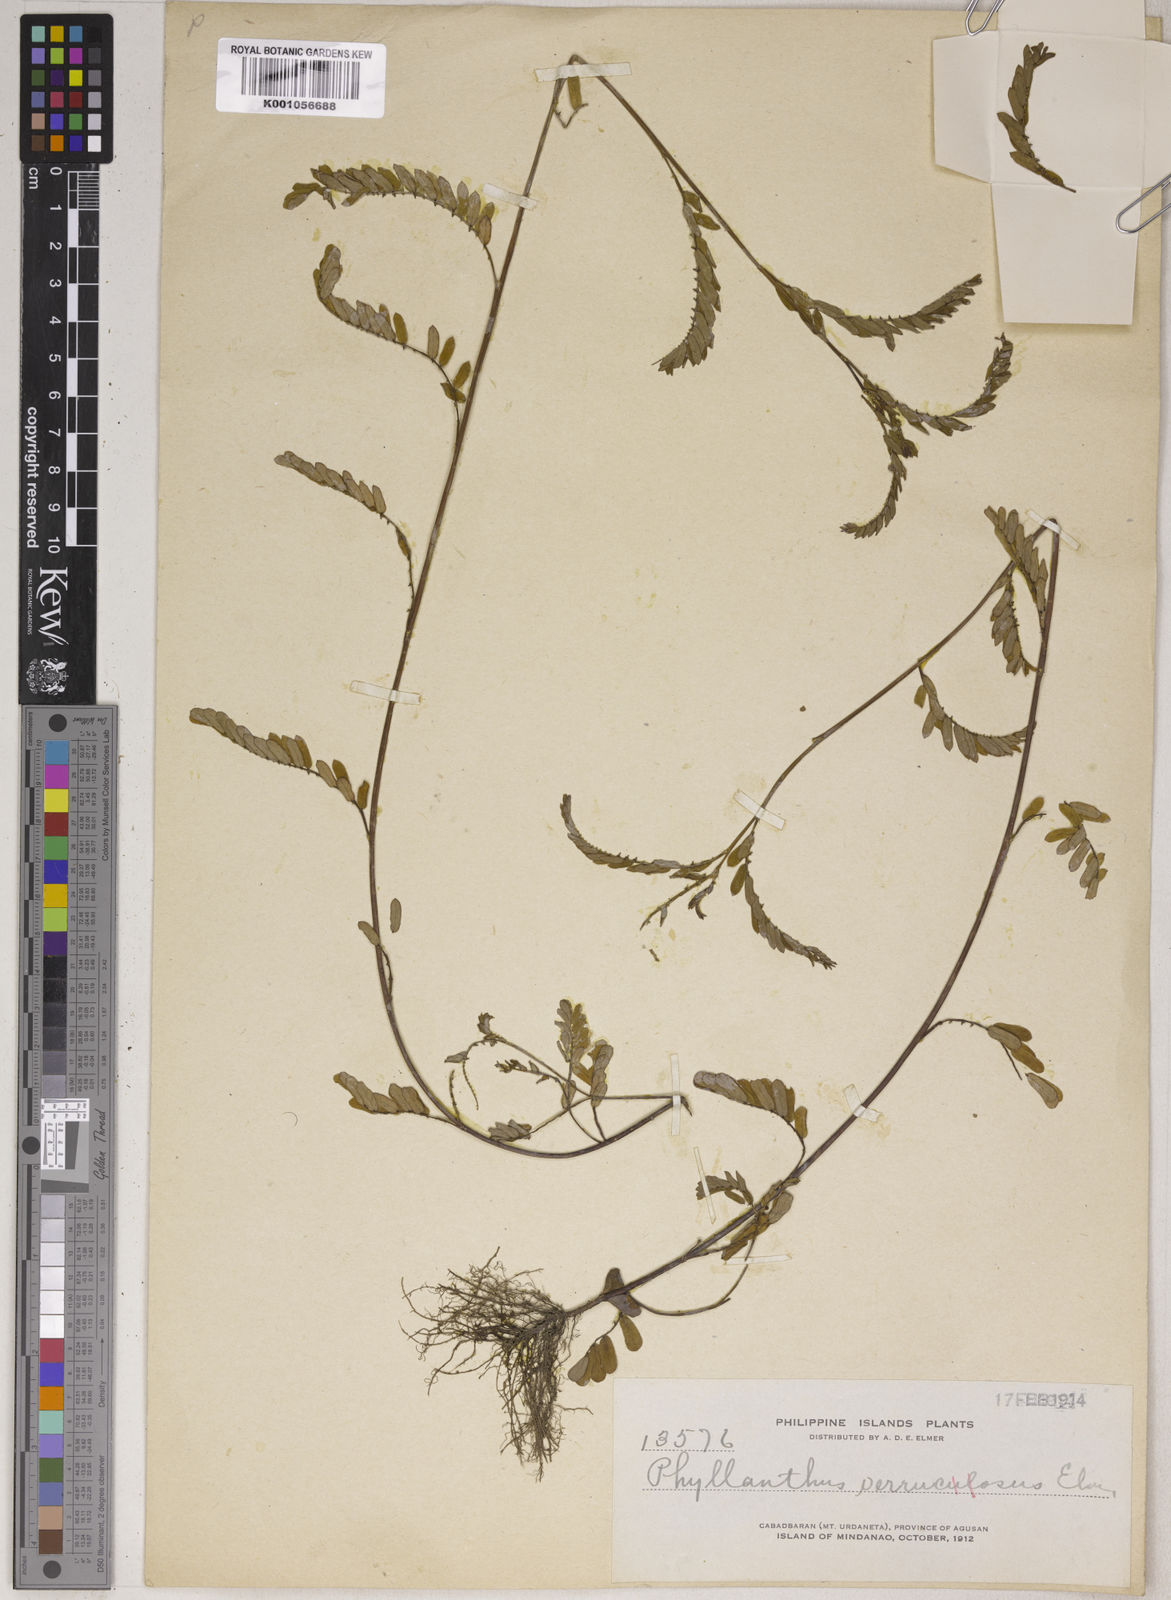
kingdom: Plantae
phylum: Tracheophyta
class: Magnoliopsida
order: Malpighiales
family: Phyllanthaceae
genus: Phyllanthus
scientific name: Phyllanthus urinaria
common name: Chamber bitter
